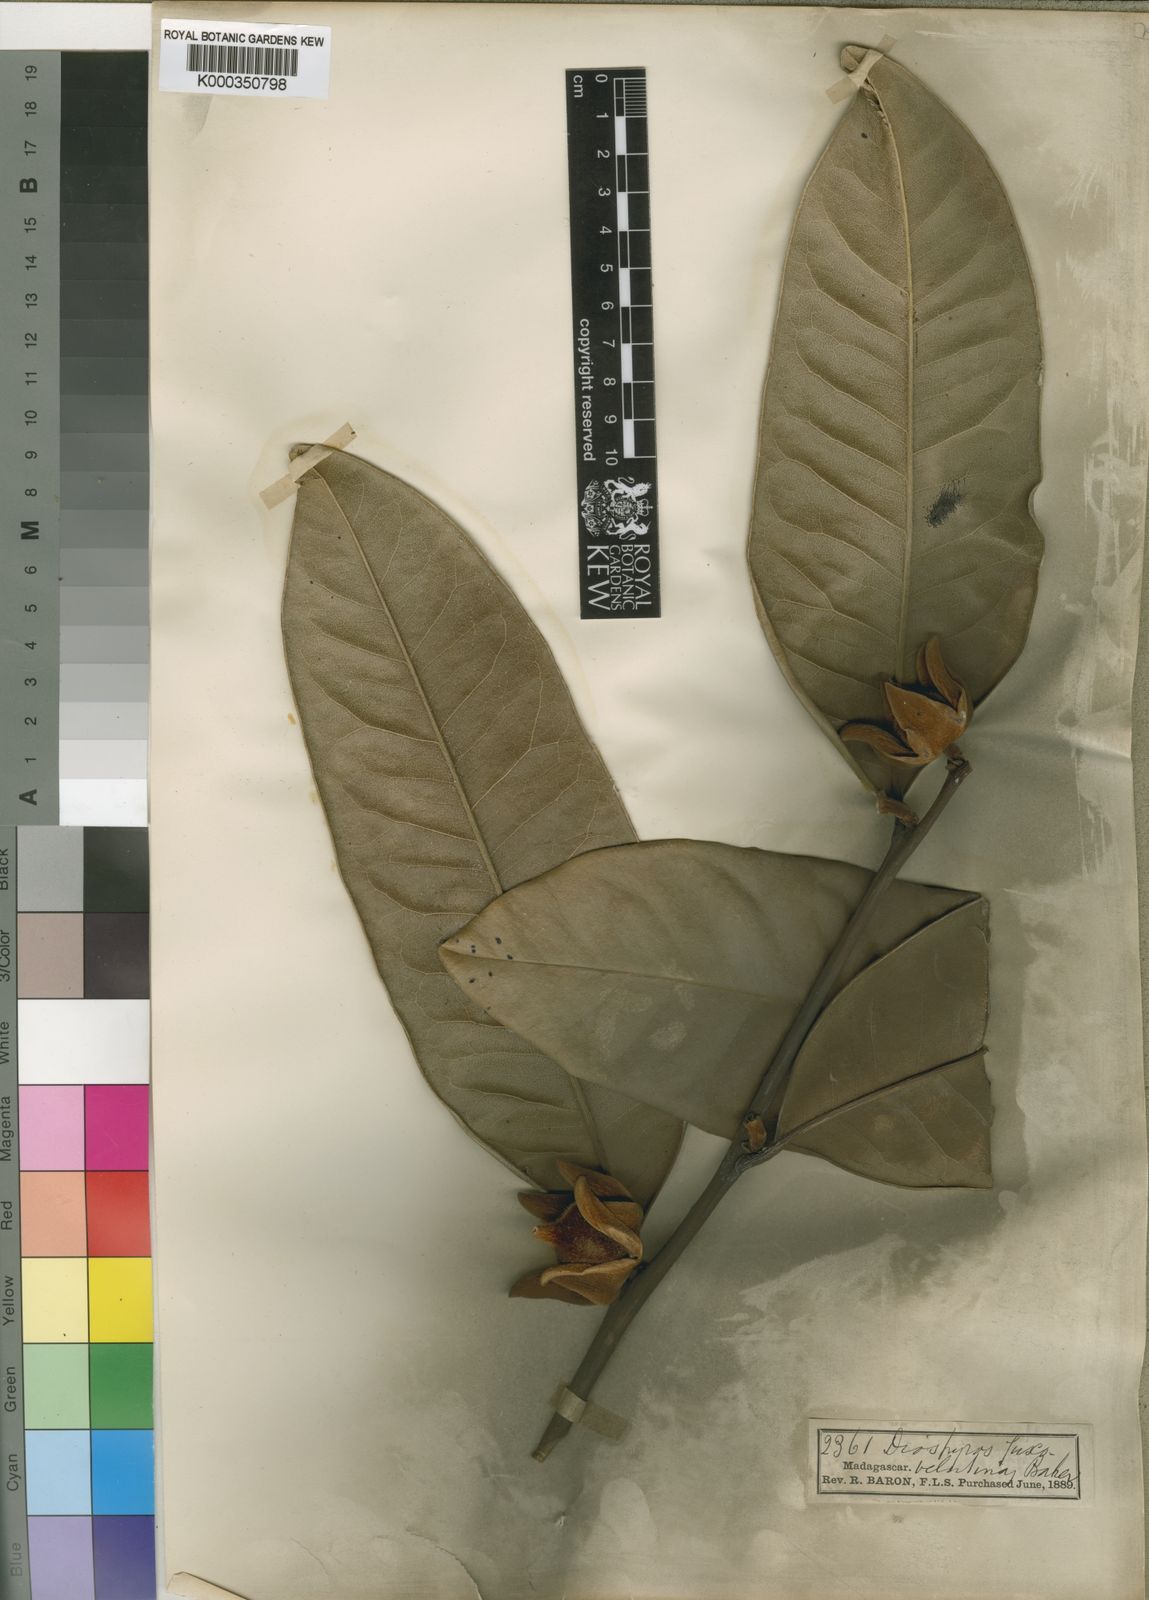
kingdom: Plantae
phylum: Tracheophyta
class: Magnoliopsida
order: Ericales
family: Ebenaceae
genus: Diospyros
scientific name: Diospyros fuscovelutina
